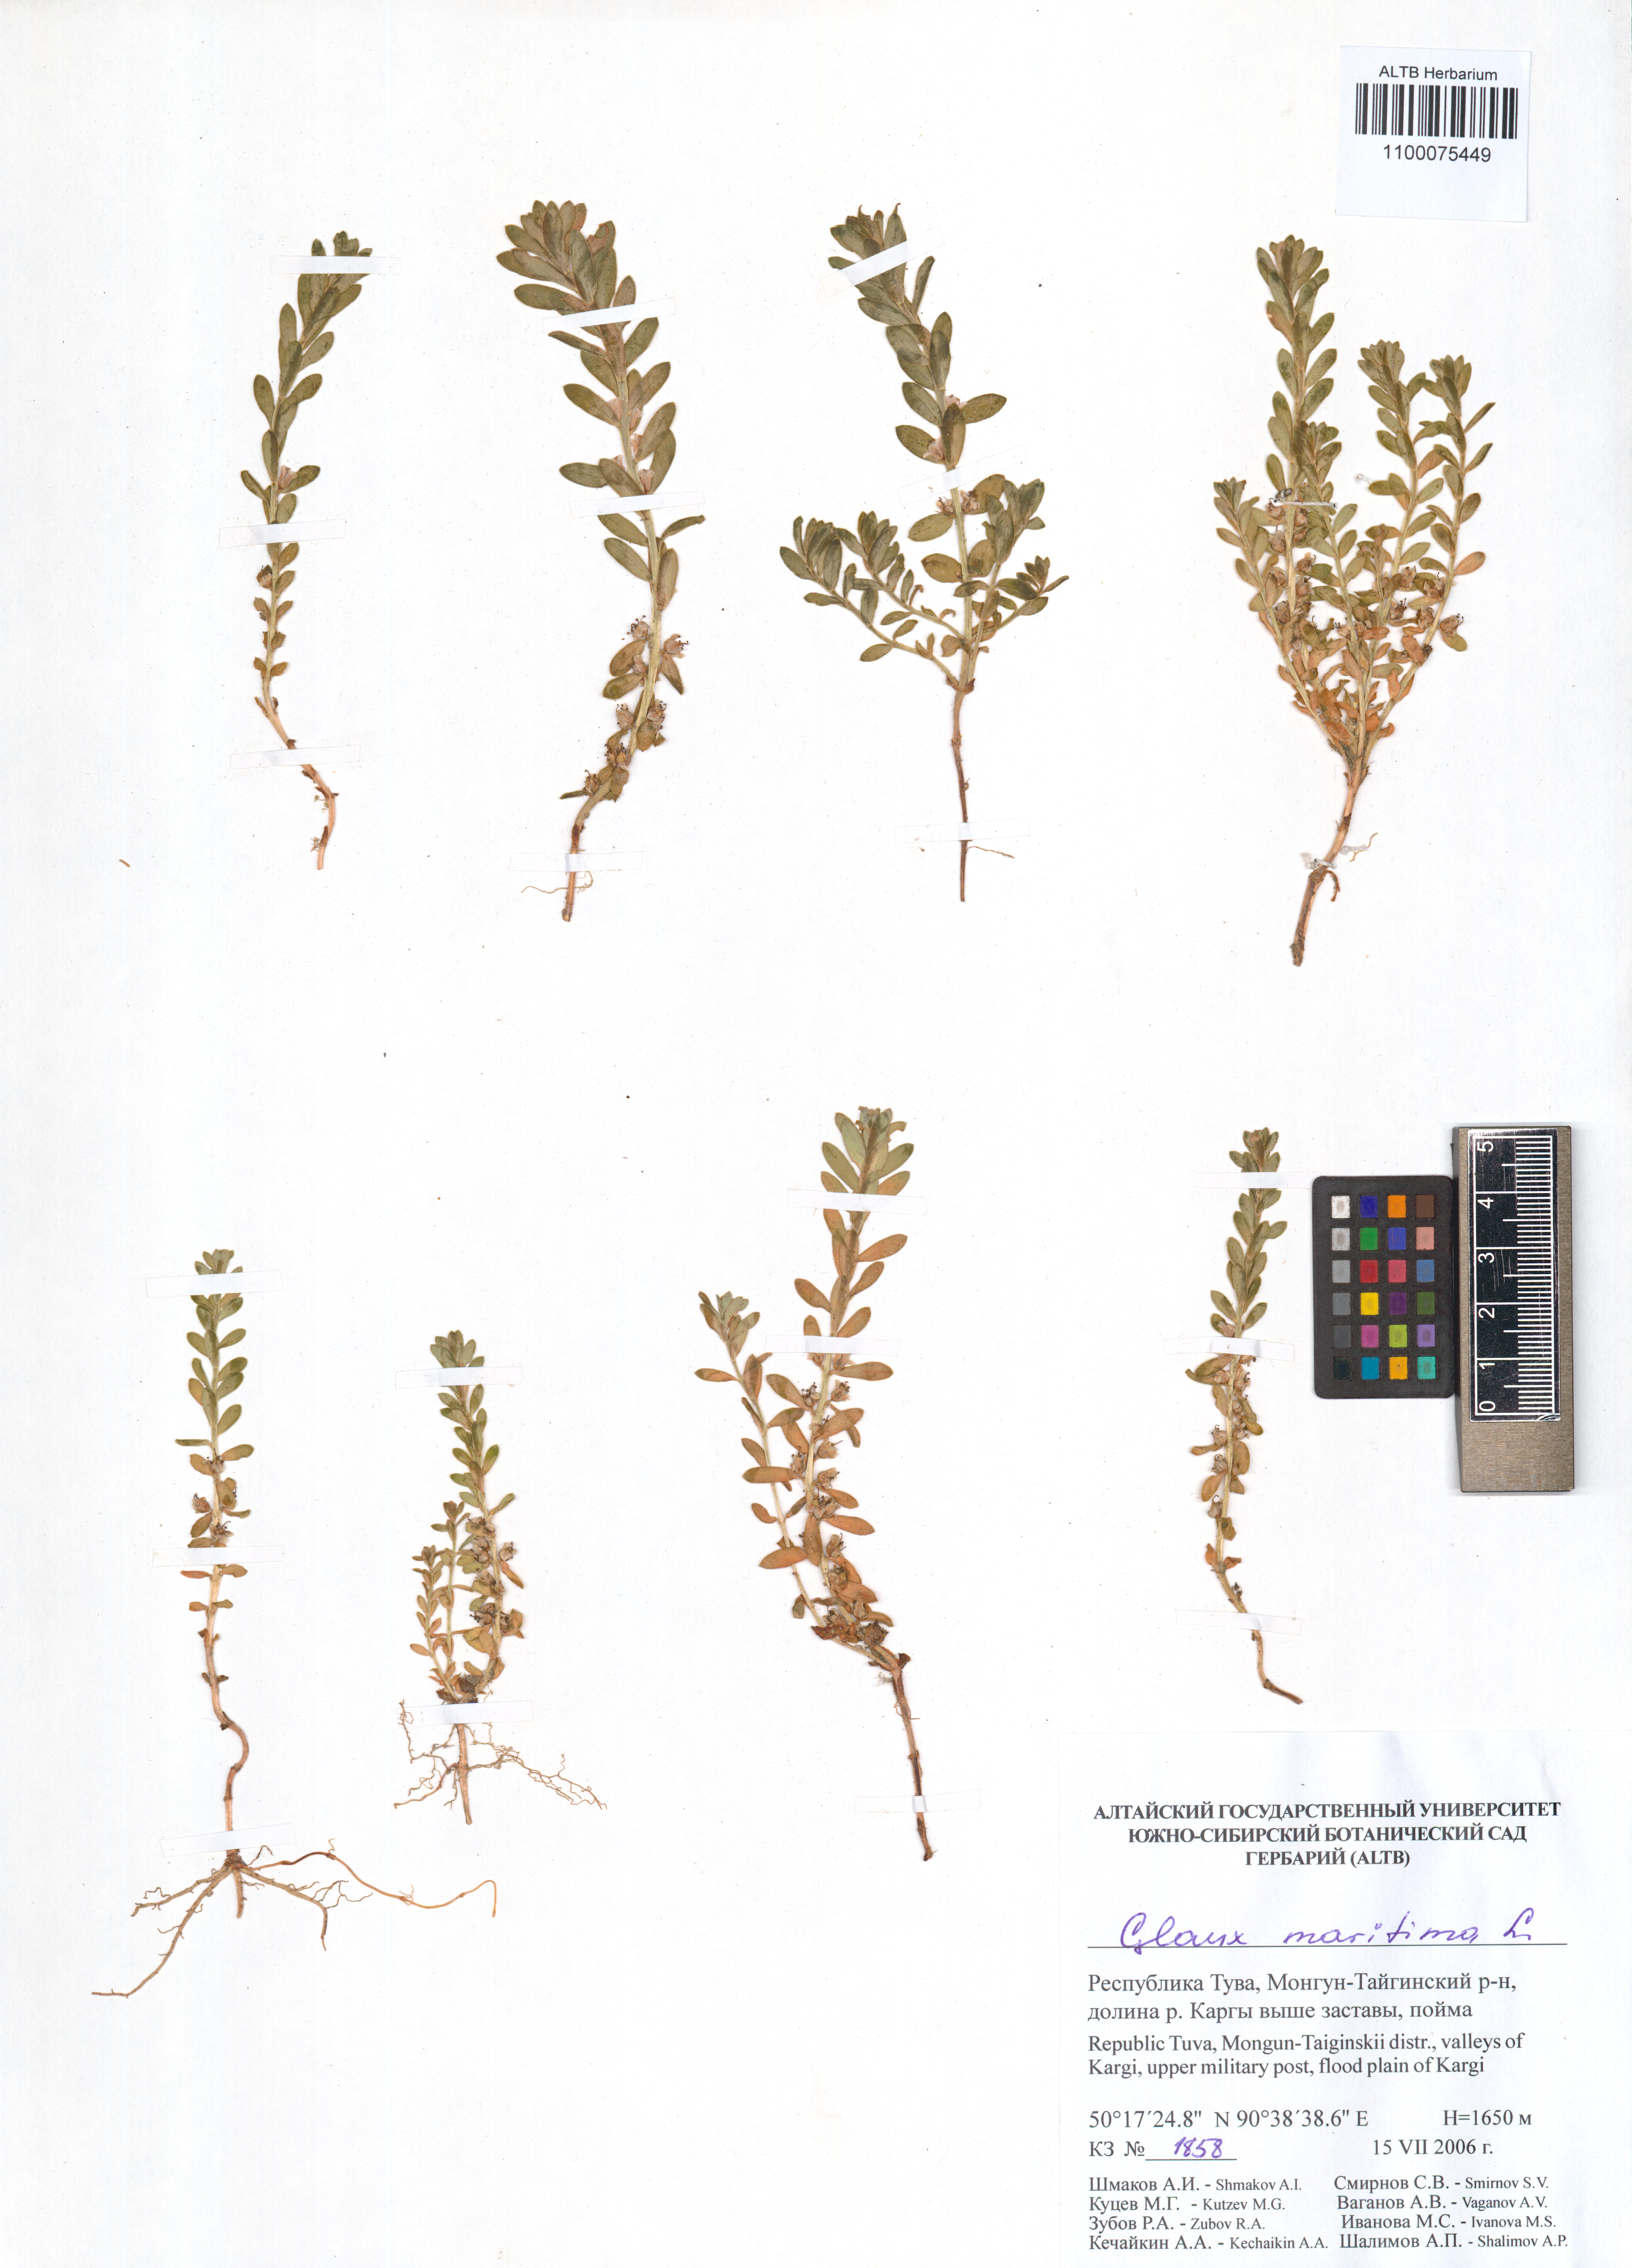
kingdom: Plantae
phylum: Tracheophyta
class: Magnoliopsida
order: Ericales
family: Primulaceae
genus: Lysimachia
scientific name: Lysimachia maritima
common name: Sea milkwort
